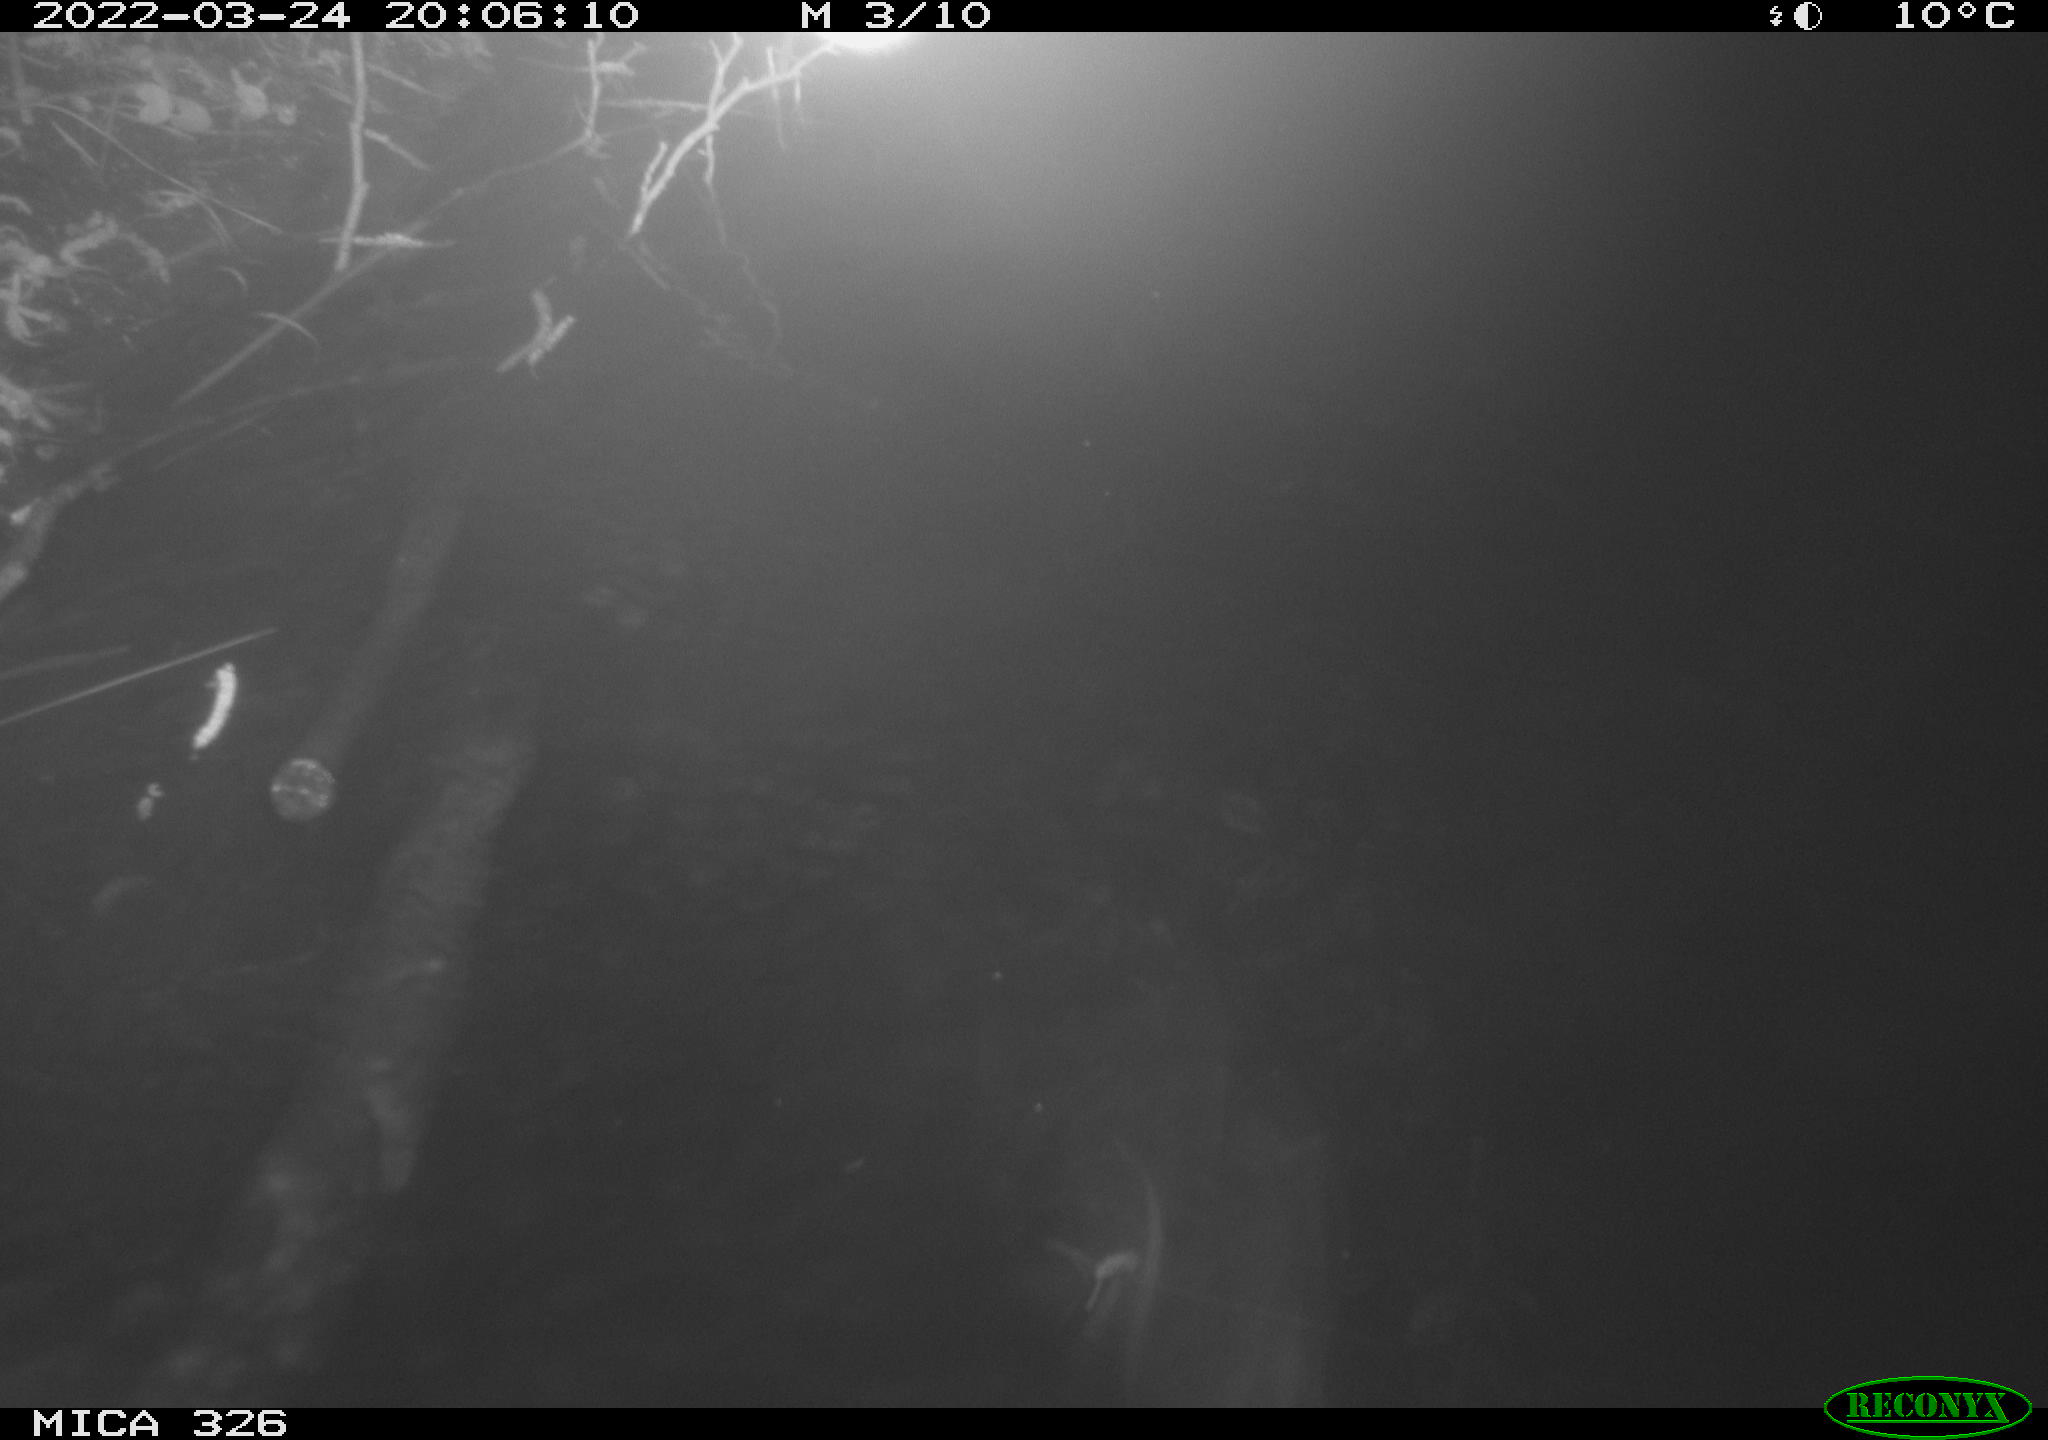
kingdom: Animalia
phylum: Chordata
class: Mammalia
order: Rodentia
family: Muridae
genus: Rattus
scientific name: Rattus norvegicus
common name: Brown rat
